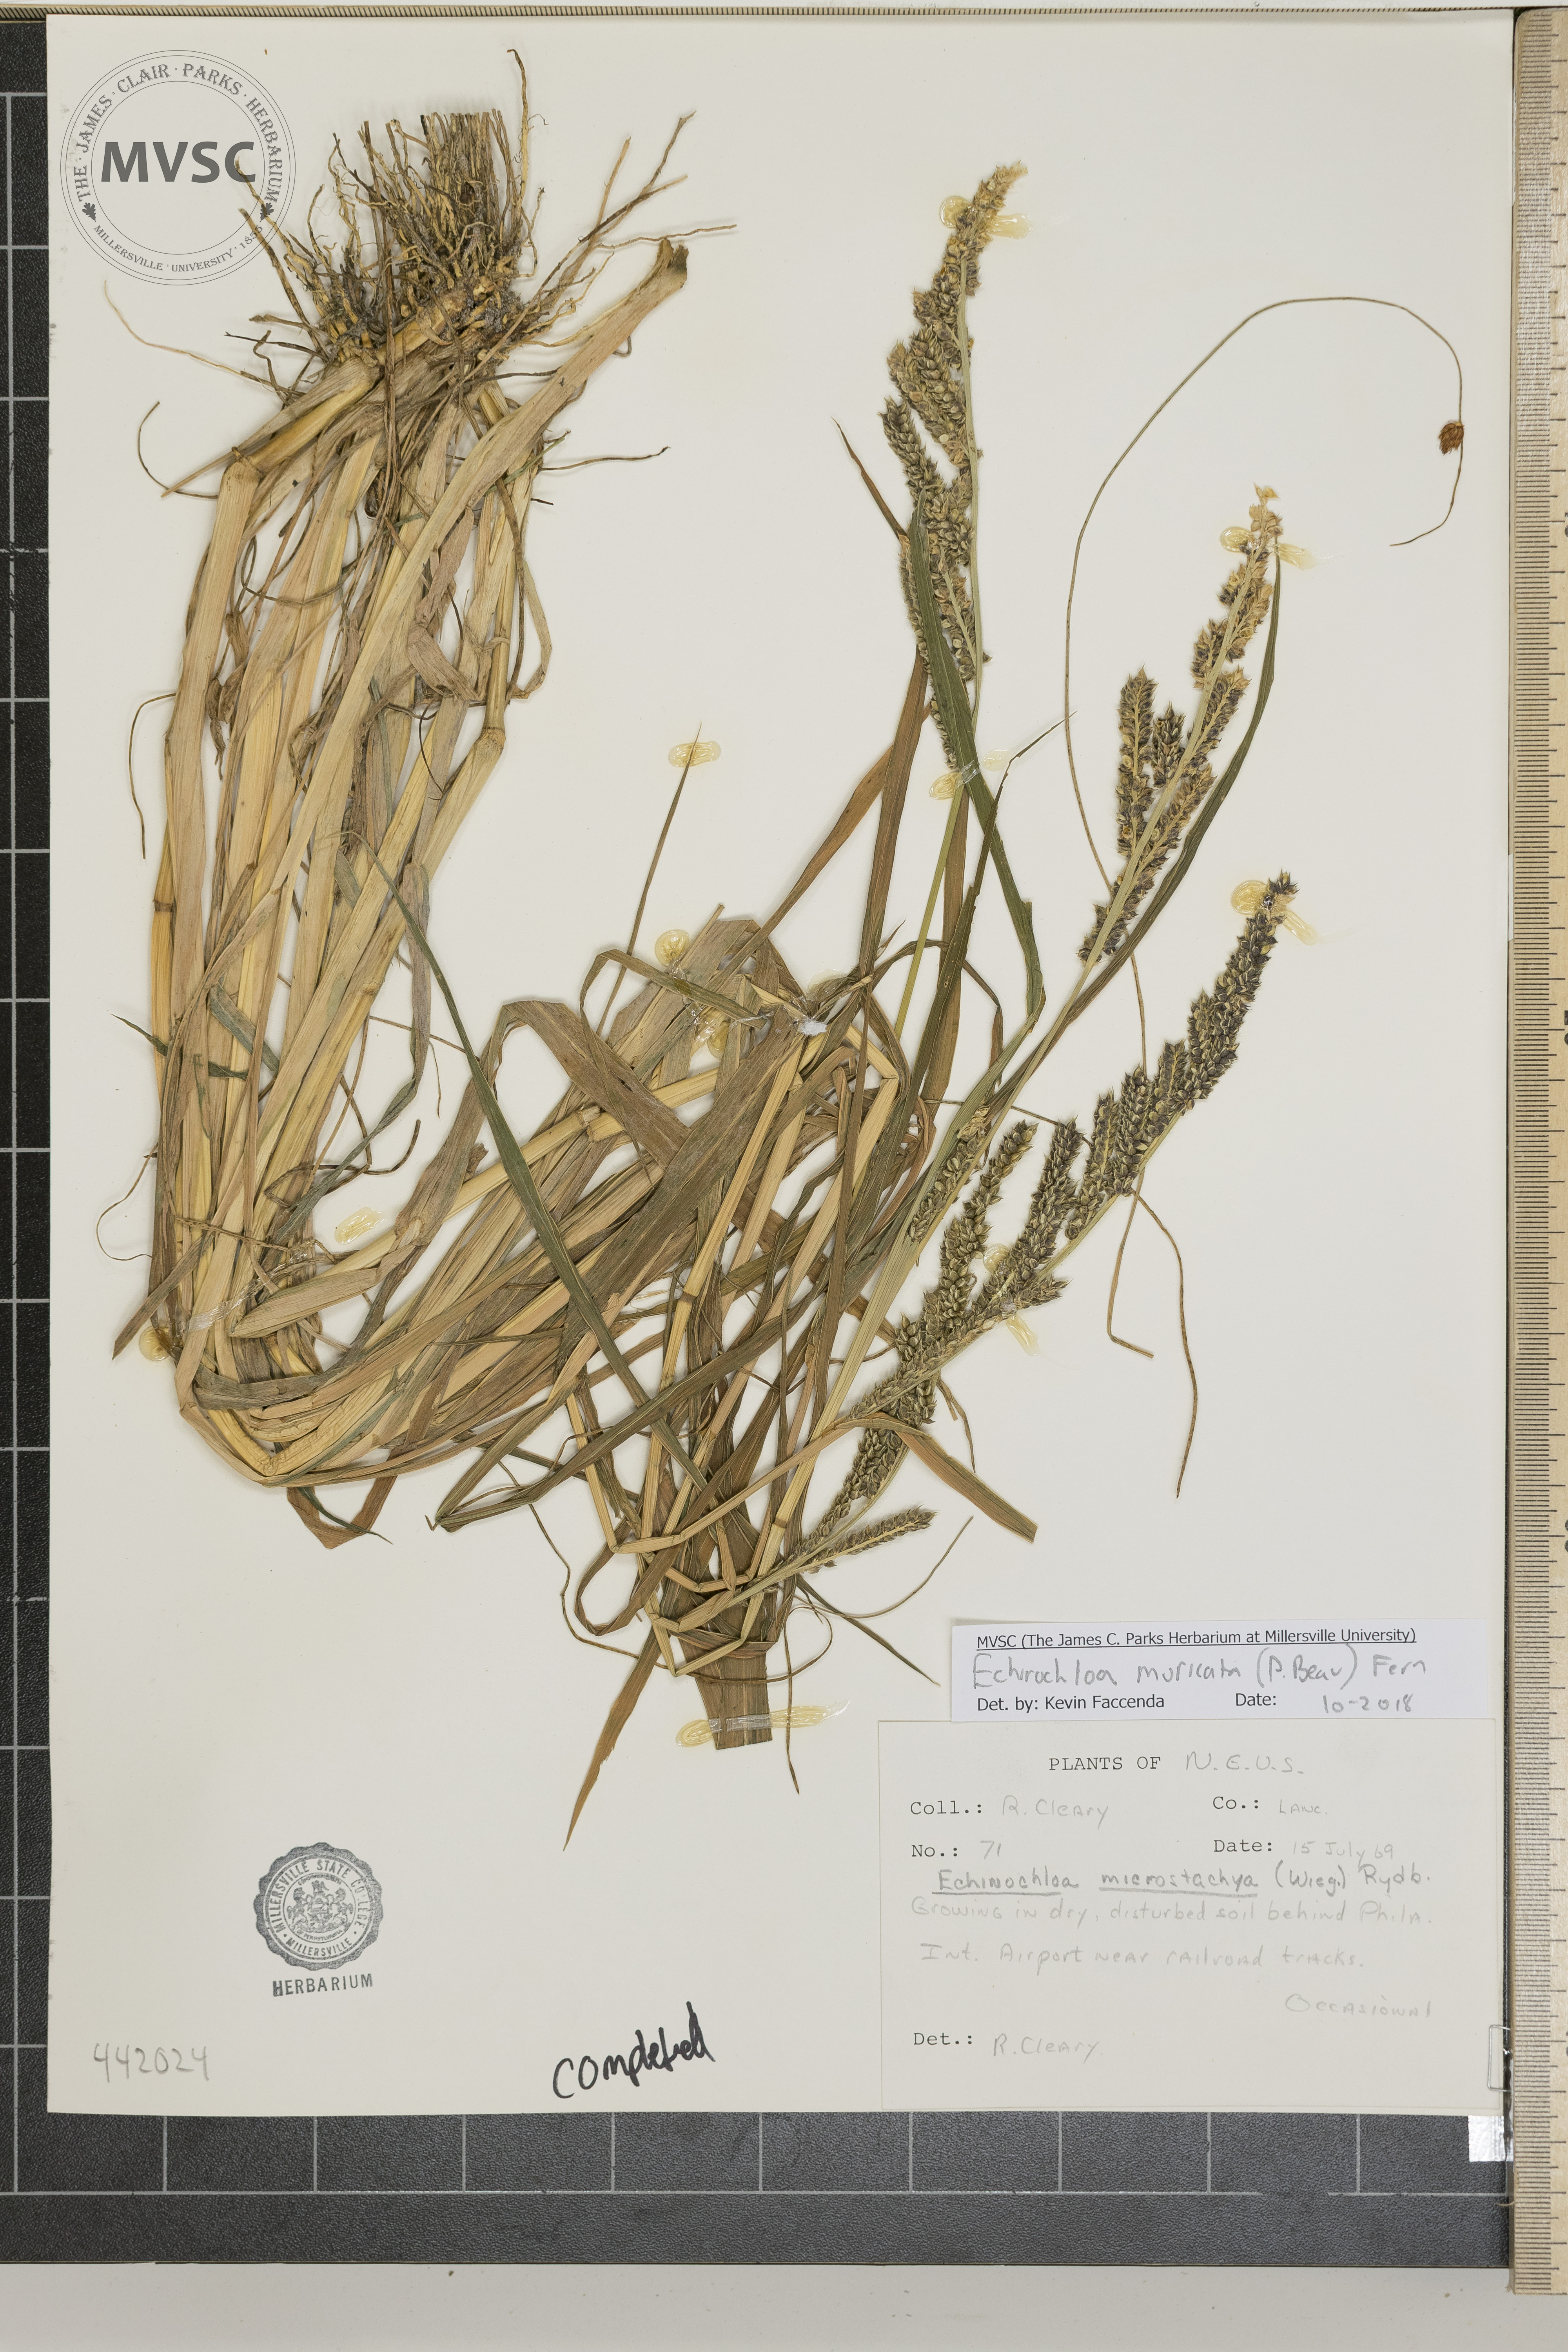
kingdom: Plantae
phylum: Tracheophyta
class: Liliopsida
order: Poales
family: Poaceae
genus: Echinochloa
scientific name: Echinochloa muricata
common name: American barnyard grass
